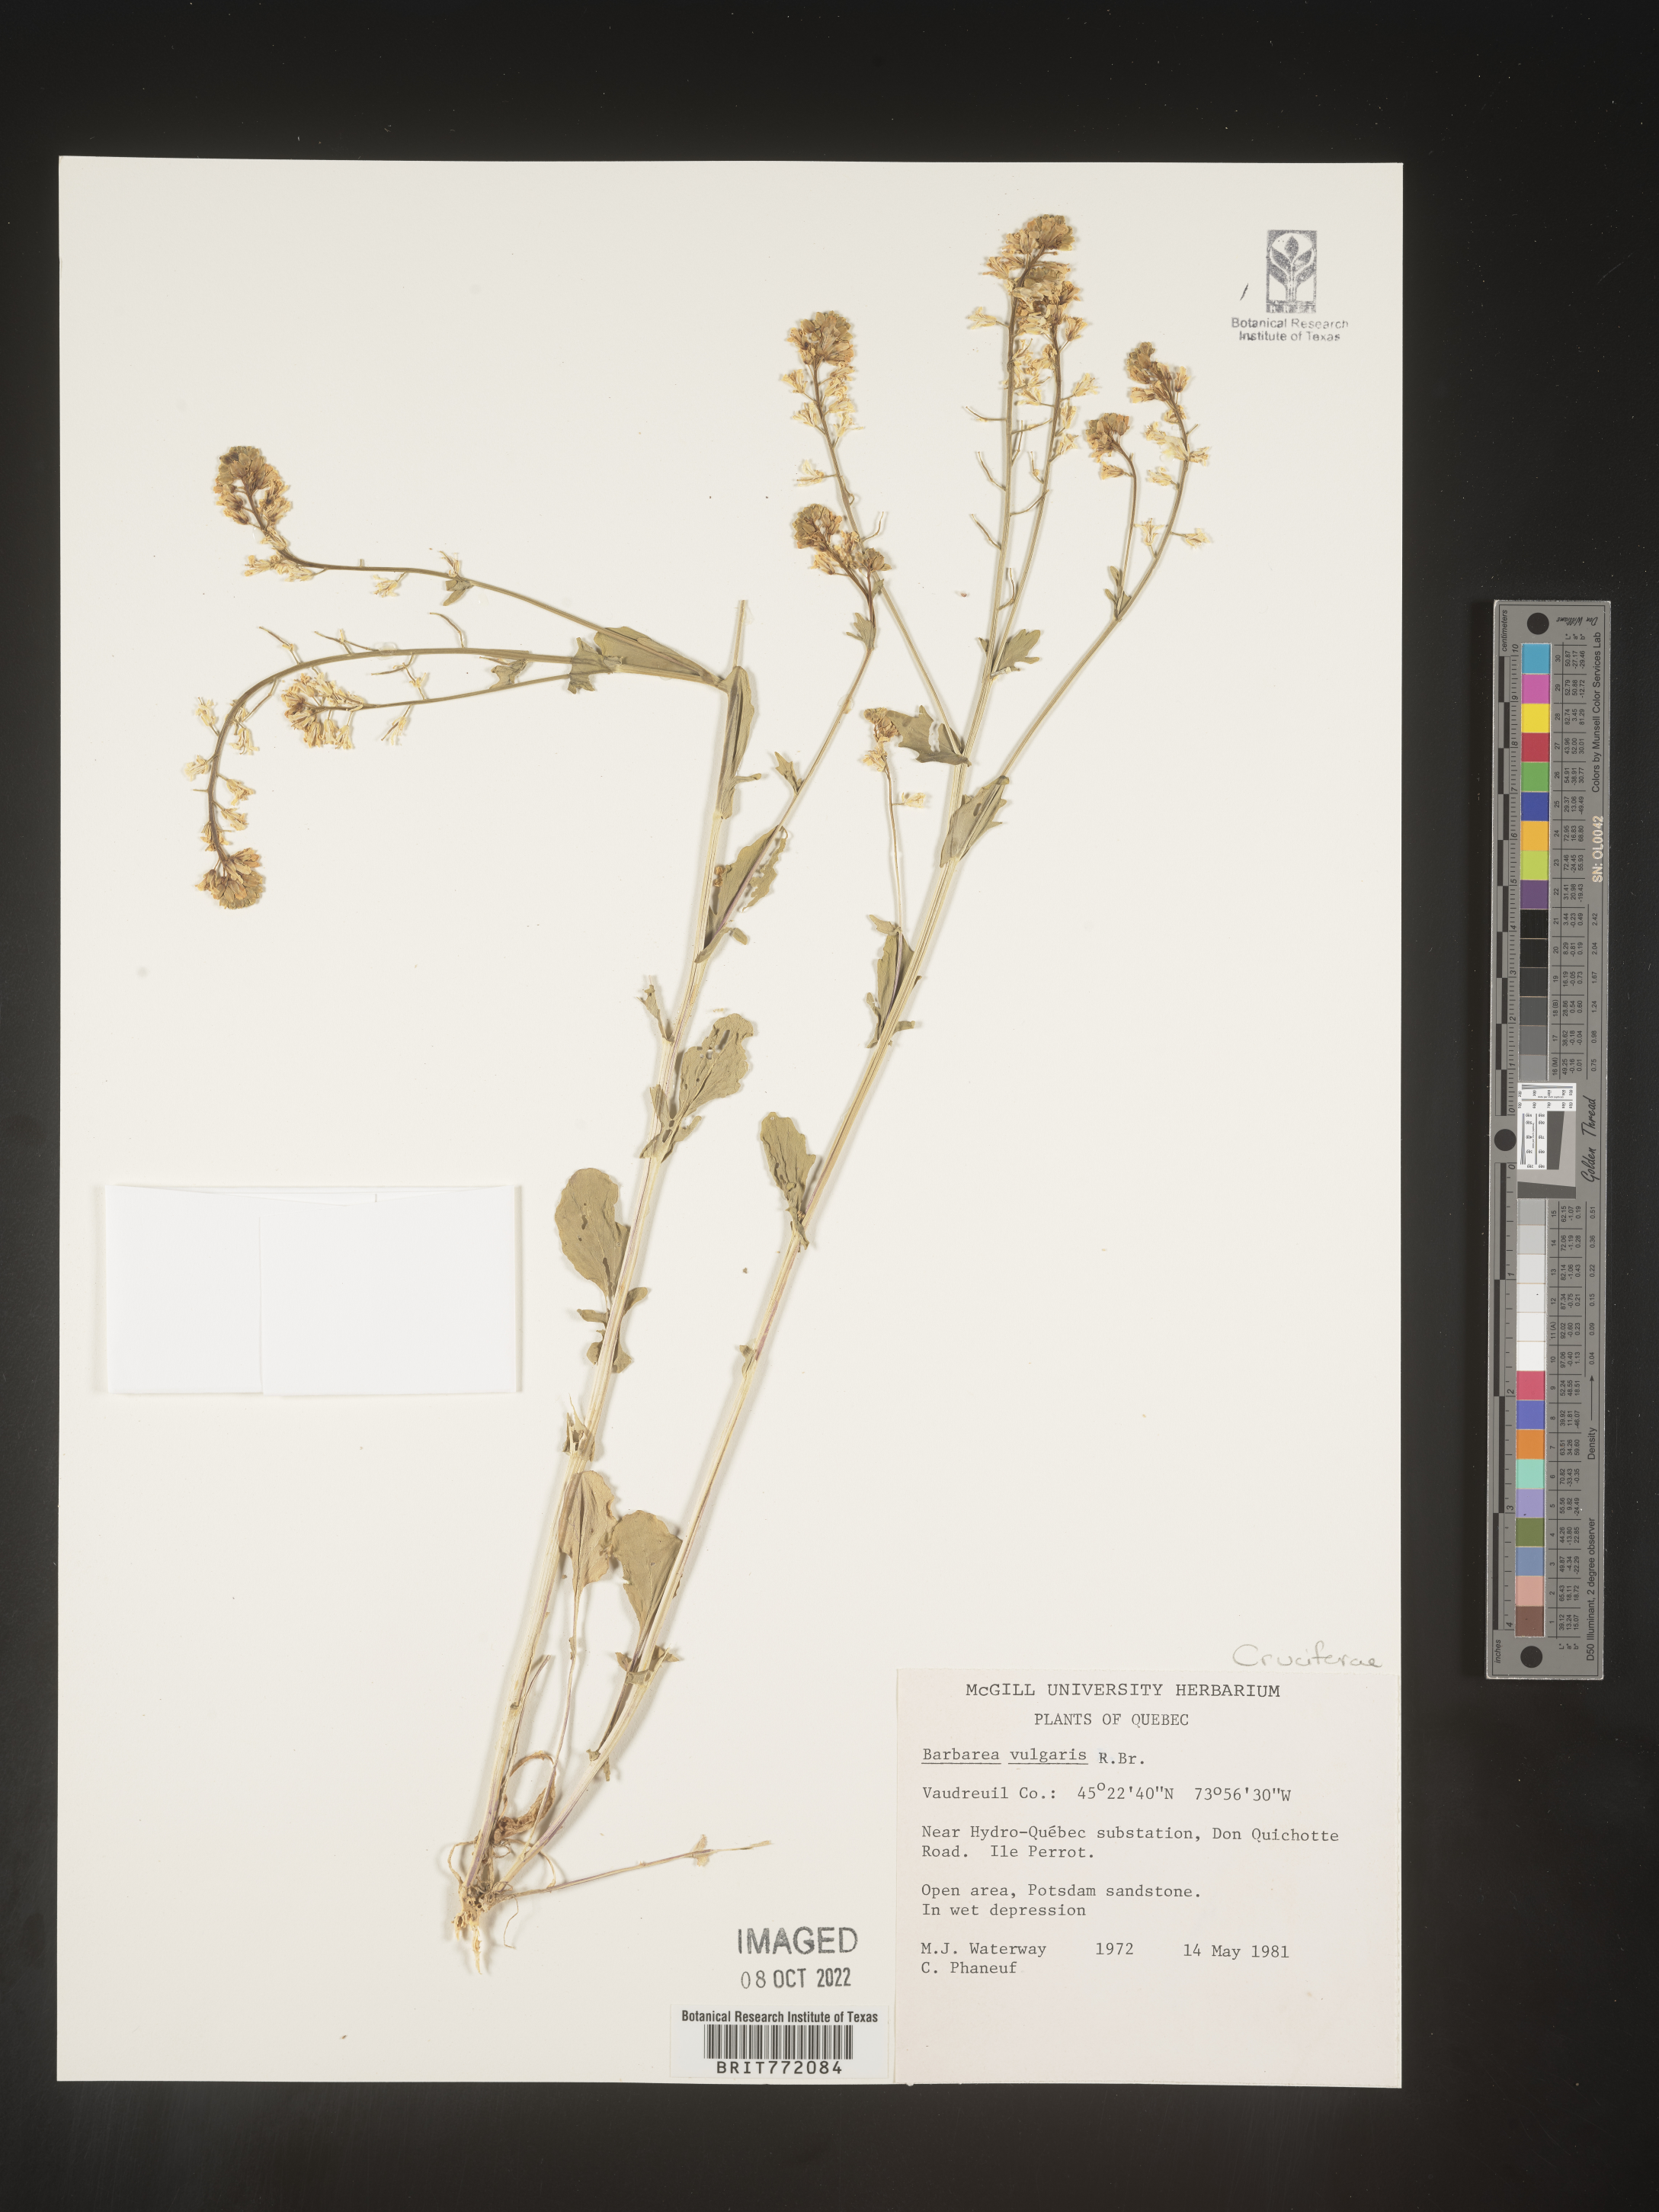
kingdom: Plantae
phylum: Tracheophyta
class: Magnoliopsida
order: Brassicales
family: Brassicaceae
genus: Barbarea
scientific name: Barbarea vulgaris
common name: Cressy-greens
